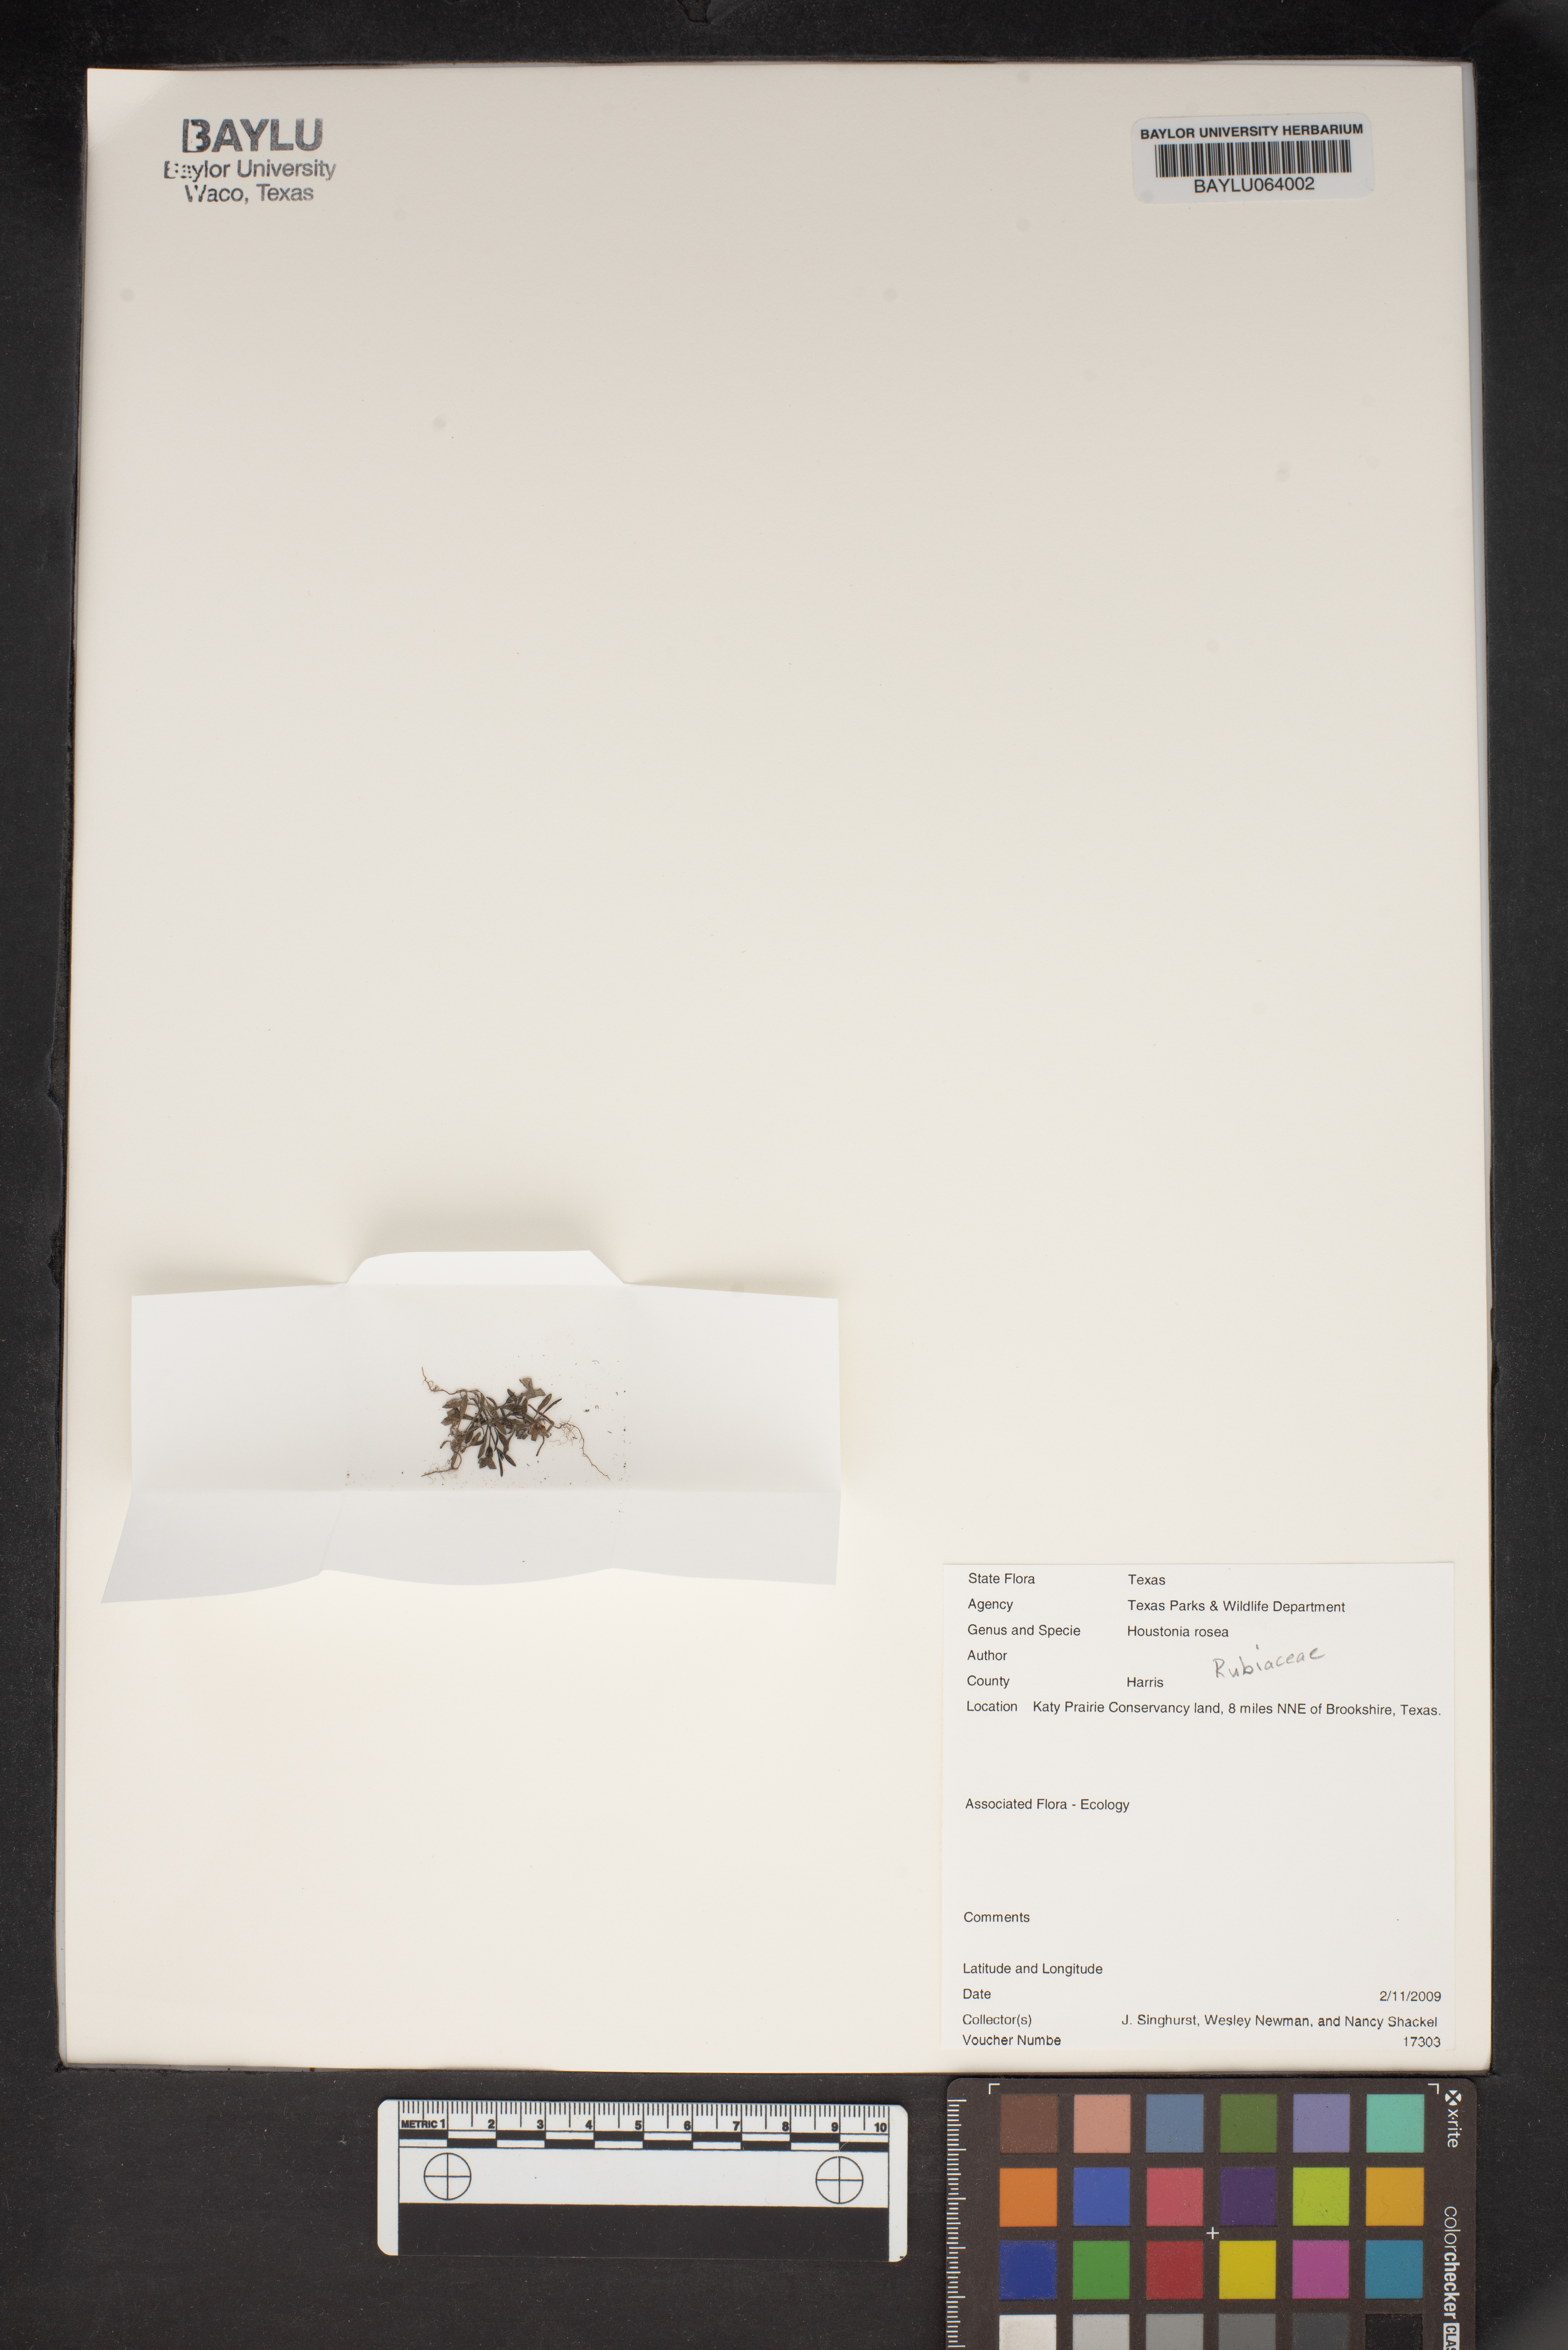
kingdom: Plantae
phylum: Tracheophyta
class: Magnoliopsida
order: Gentianales
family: Rubiaceae
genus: Houstonia
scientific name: Houstonia rosea
